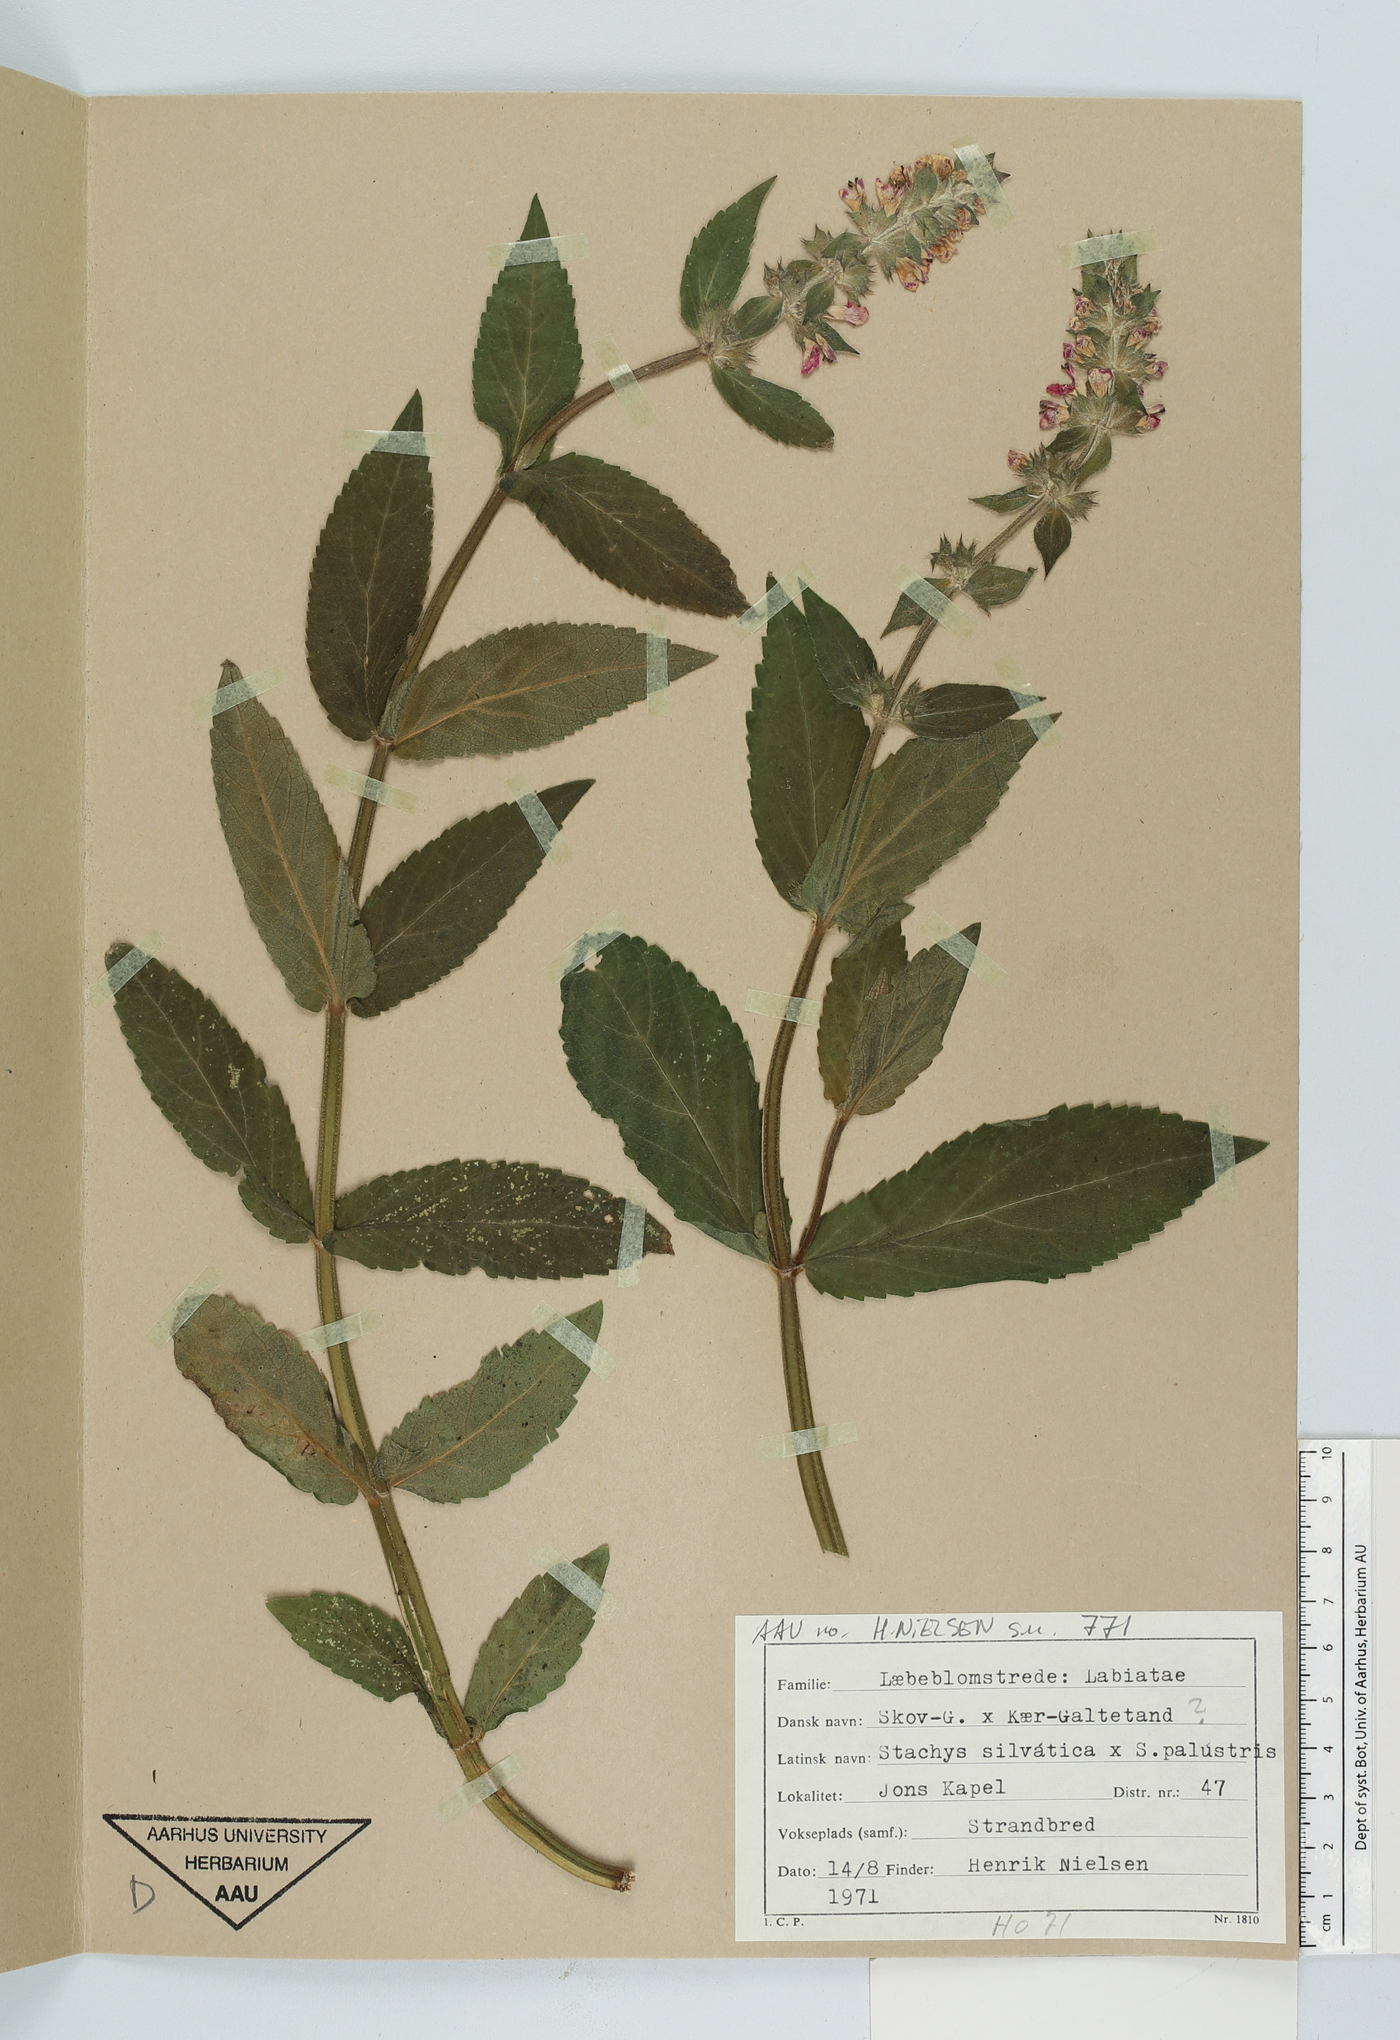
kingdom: Plantae
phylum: Tracheophyta
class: Magnoliopsida
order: Lamiales
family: Lamiaceae
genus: Stachys
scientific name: Stachys
